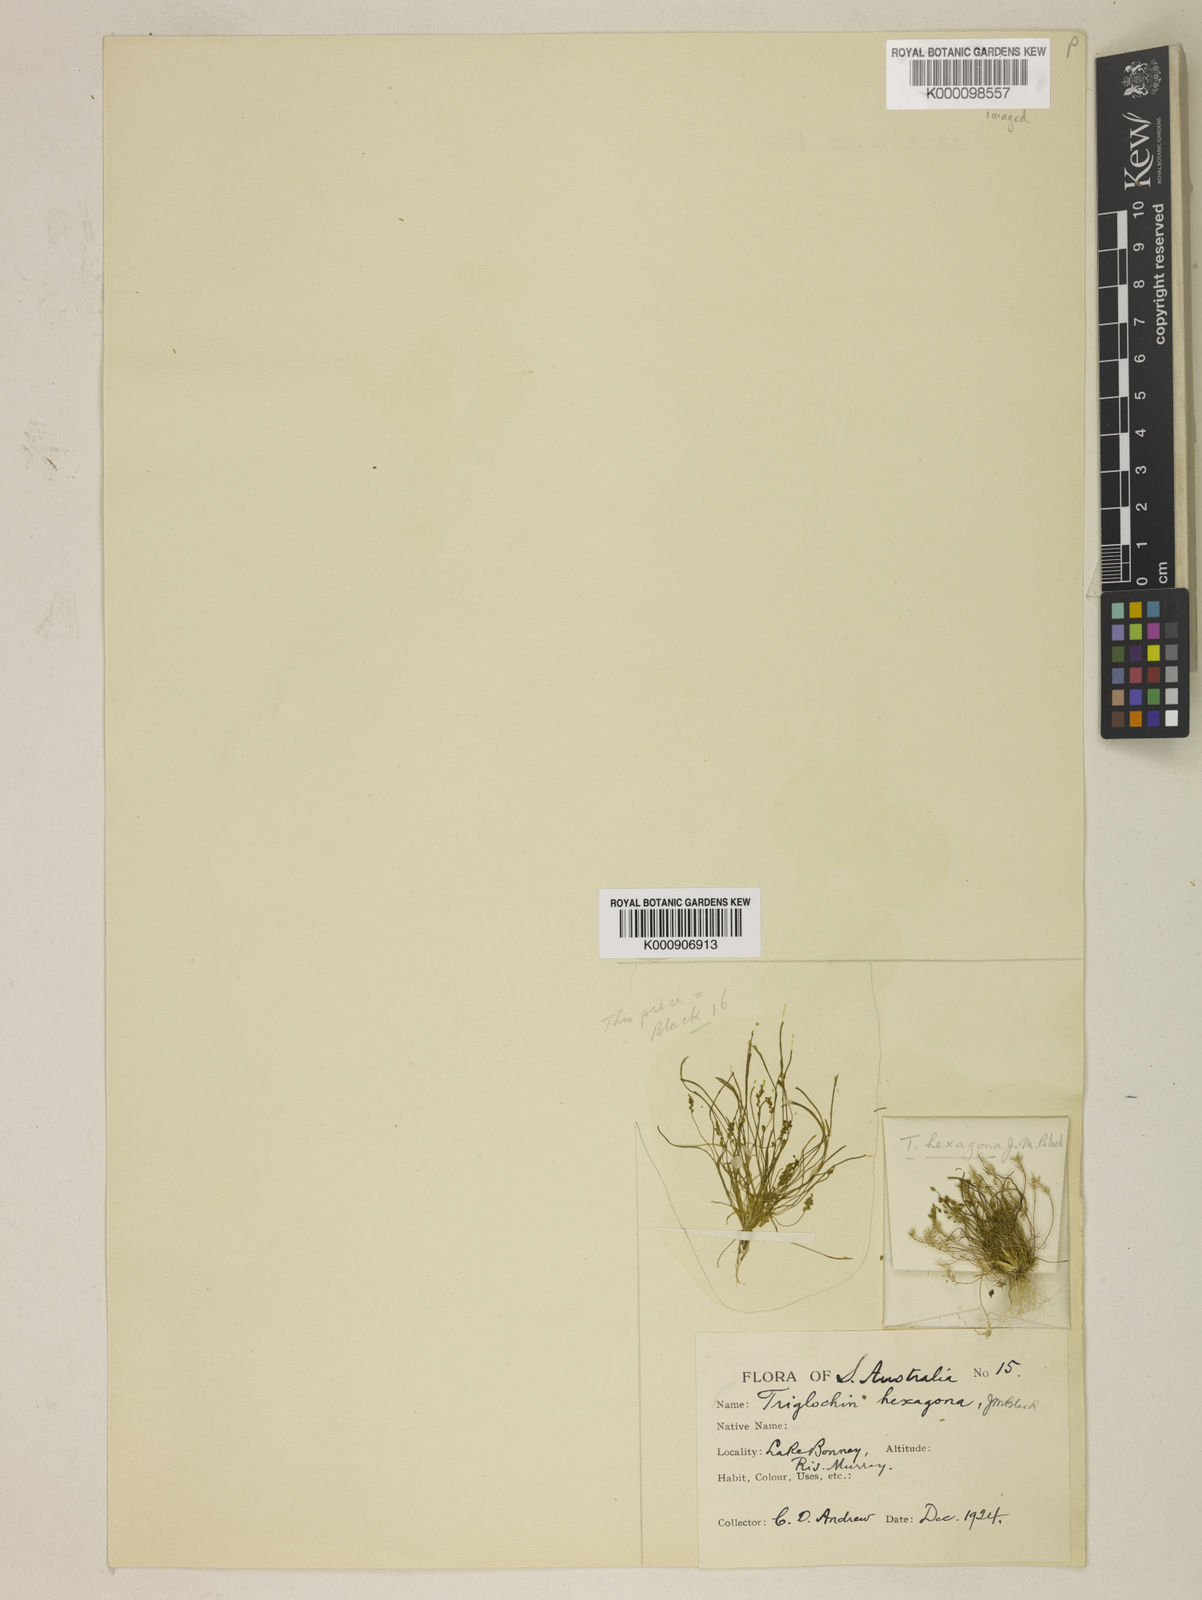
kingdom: Plantae
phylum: Tracheophyta
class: Liliopsida
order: Alismatales
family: Juncaginaceae
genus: Triglochin
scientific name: Triglochin hexagona
